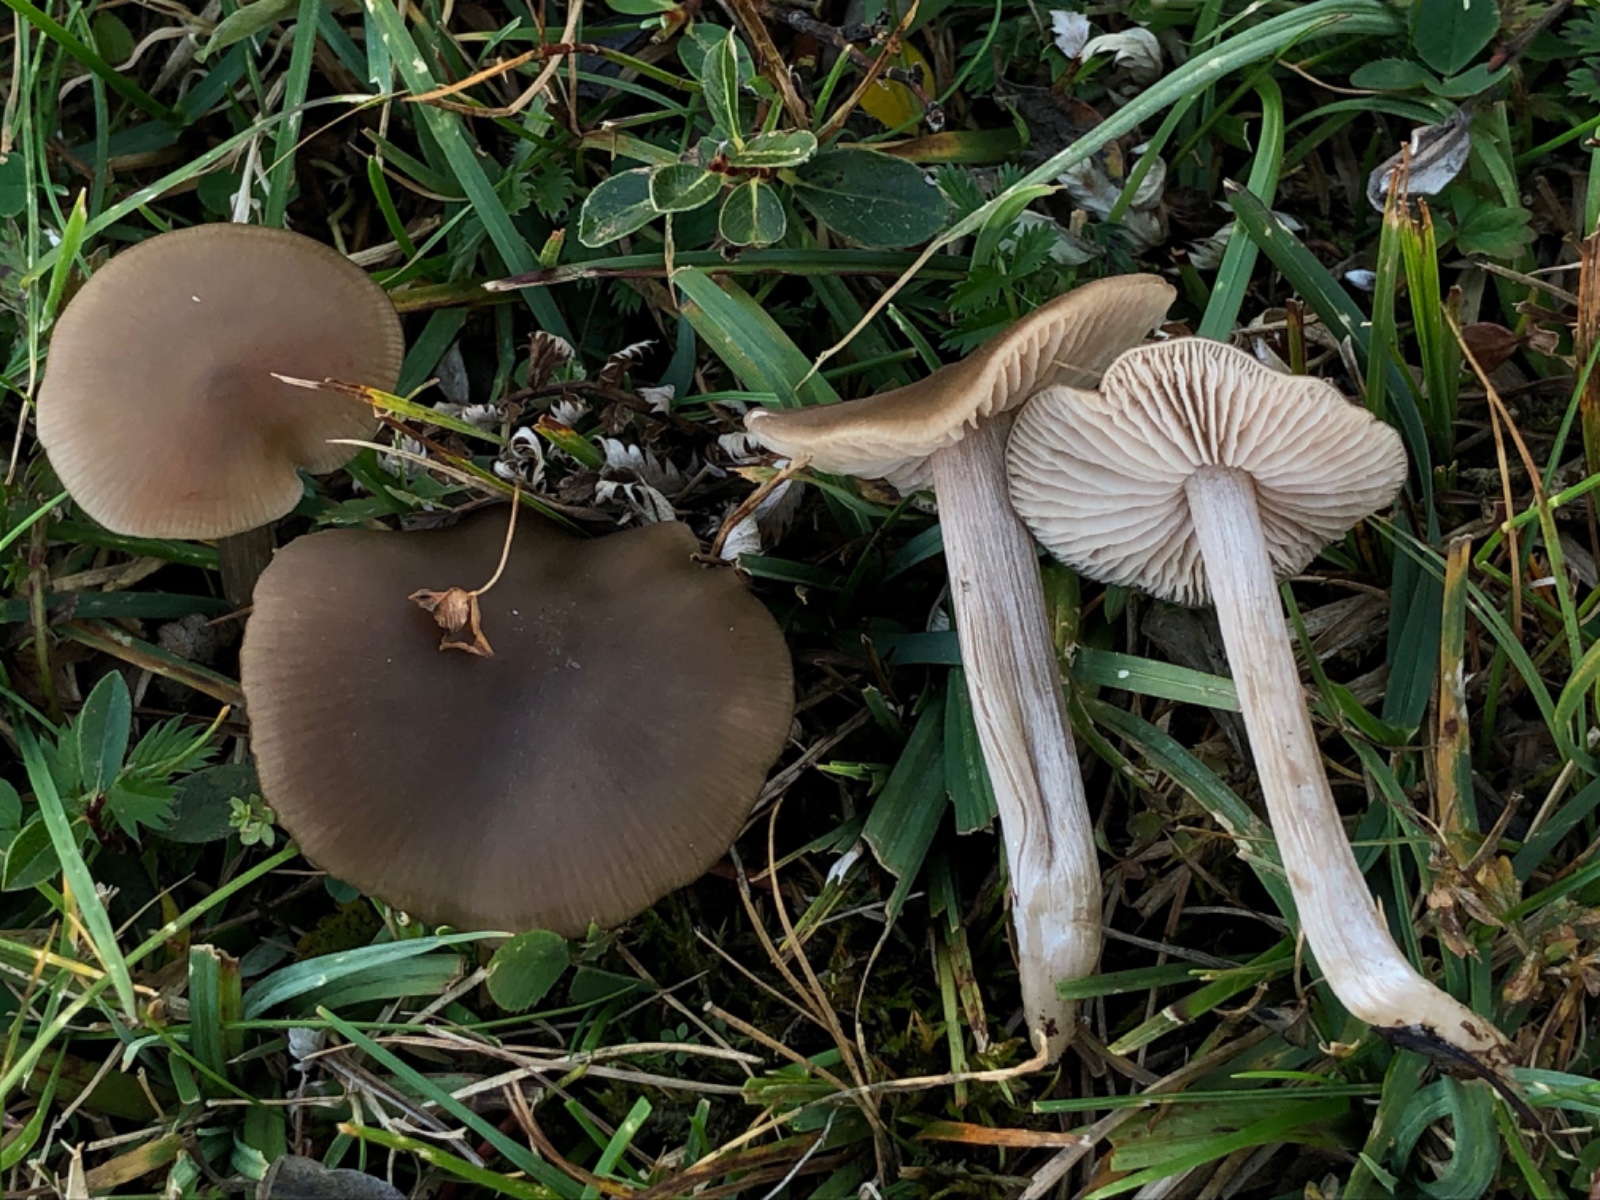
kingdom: Fungi
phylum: Basidiomycota
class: Agaricomycetes
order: Agaricales
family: Entolomataceae
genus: Entoloma
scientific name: Entoloma sericeum
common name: silkeglinsende rødblad
